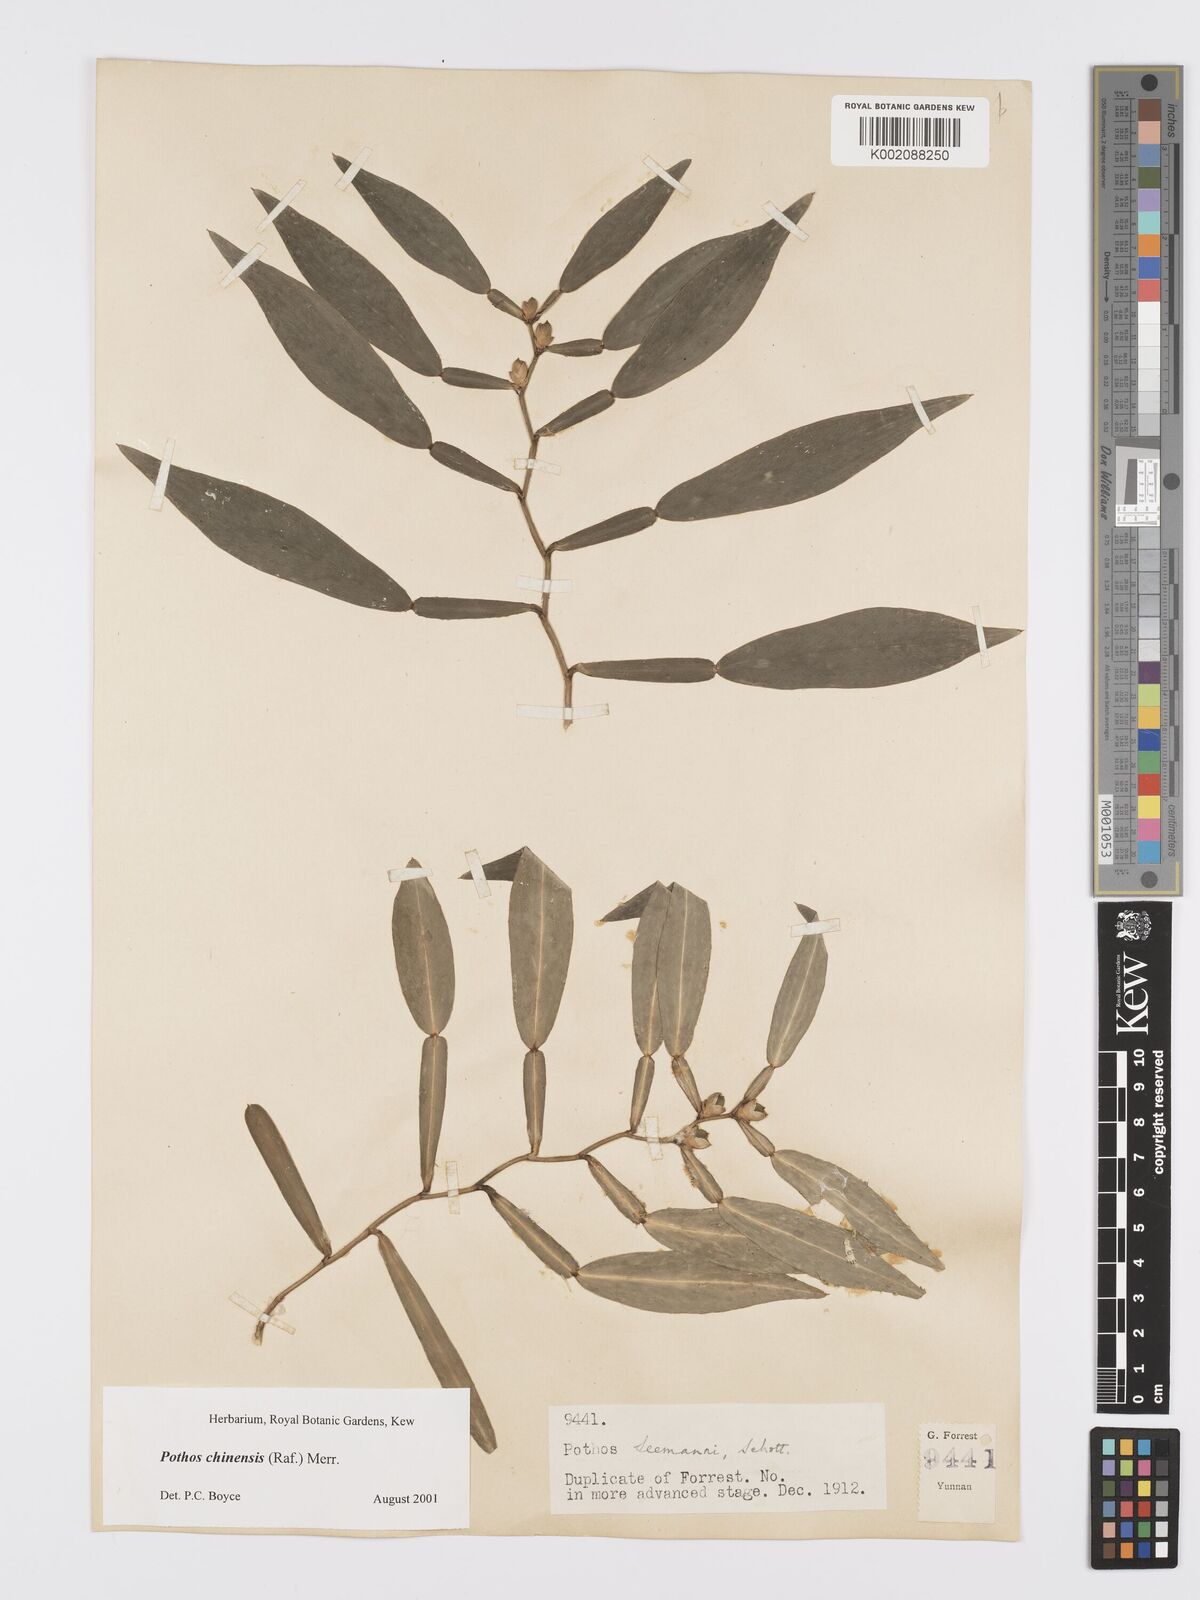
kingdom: Plantae
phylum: Tracheophyta
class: Liliopsida
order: Alismatales
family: Araceae
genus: Pothos
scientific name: Pothos chinensis
